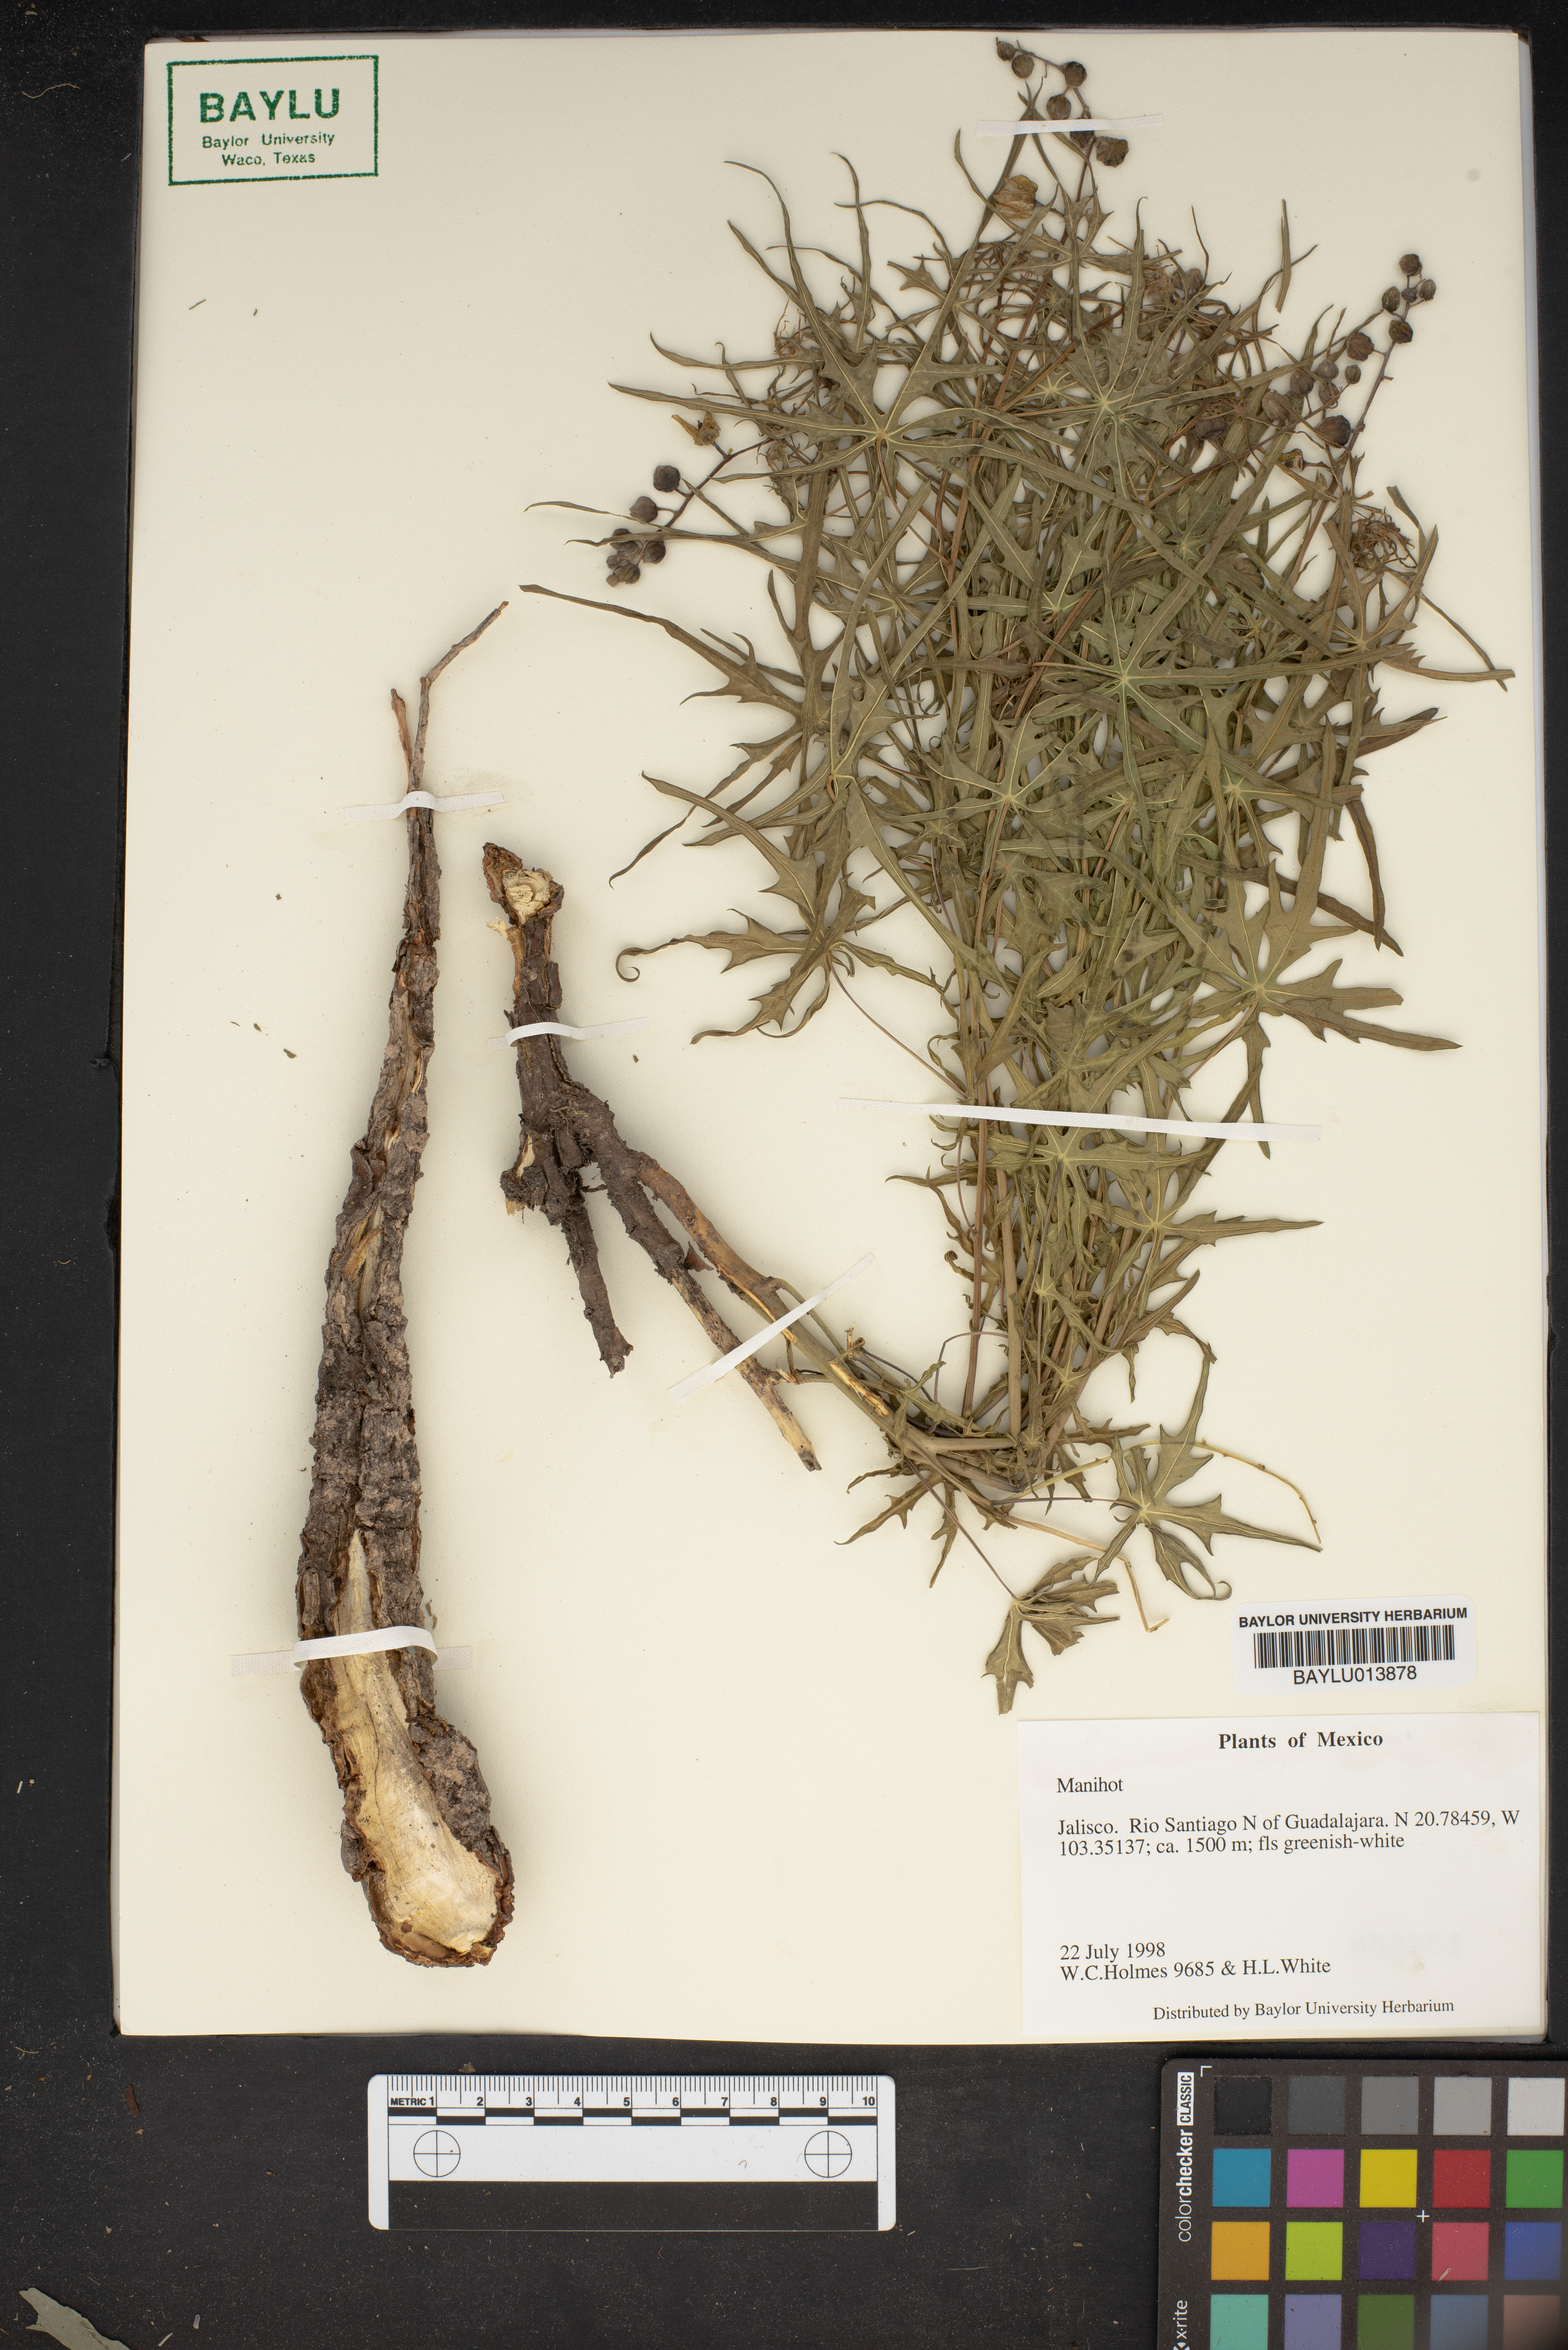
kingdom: Plantae
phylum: Tracheophyta
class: Magnoliopsida
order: Malpighiales
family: Euphorbiaceae
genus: Manihot
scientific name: Manihot
